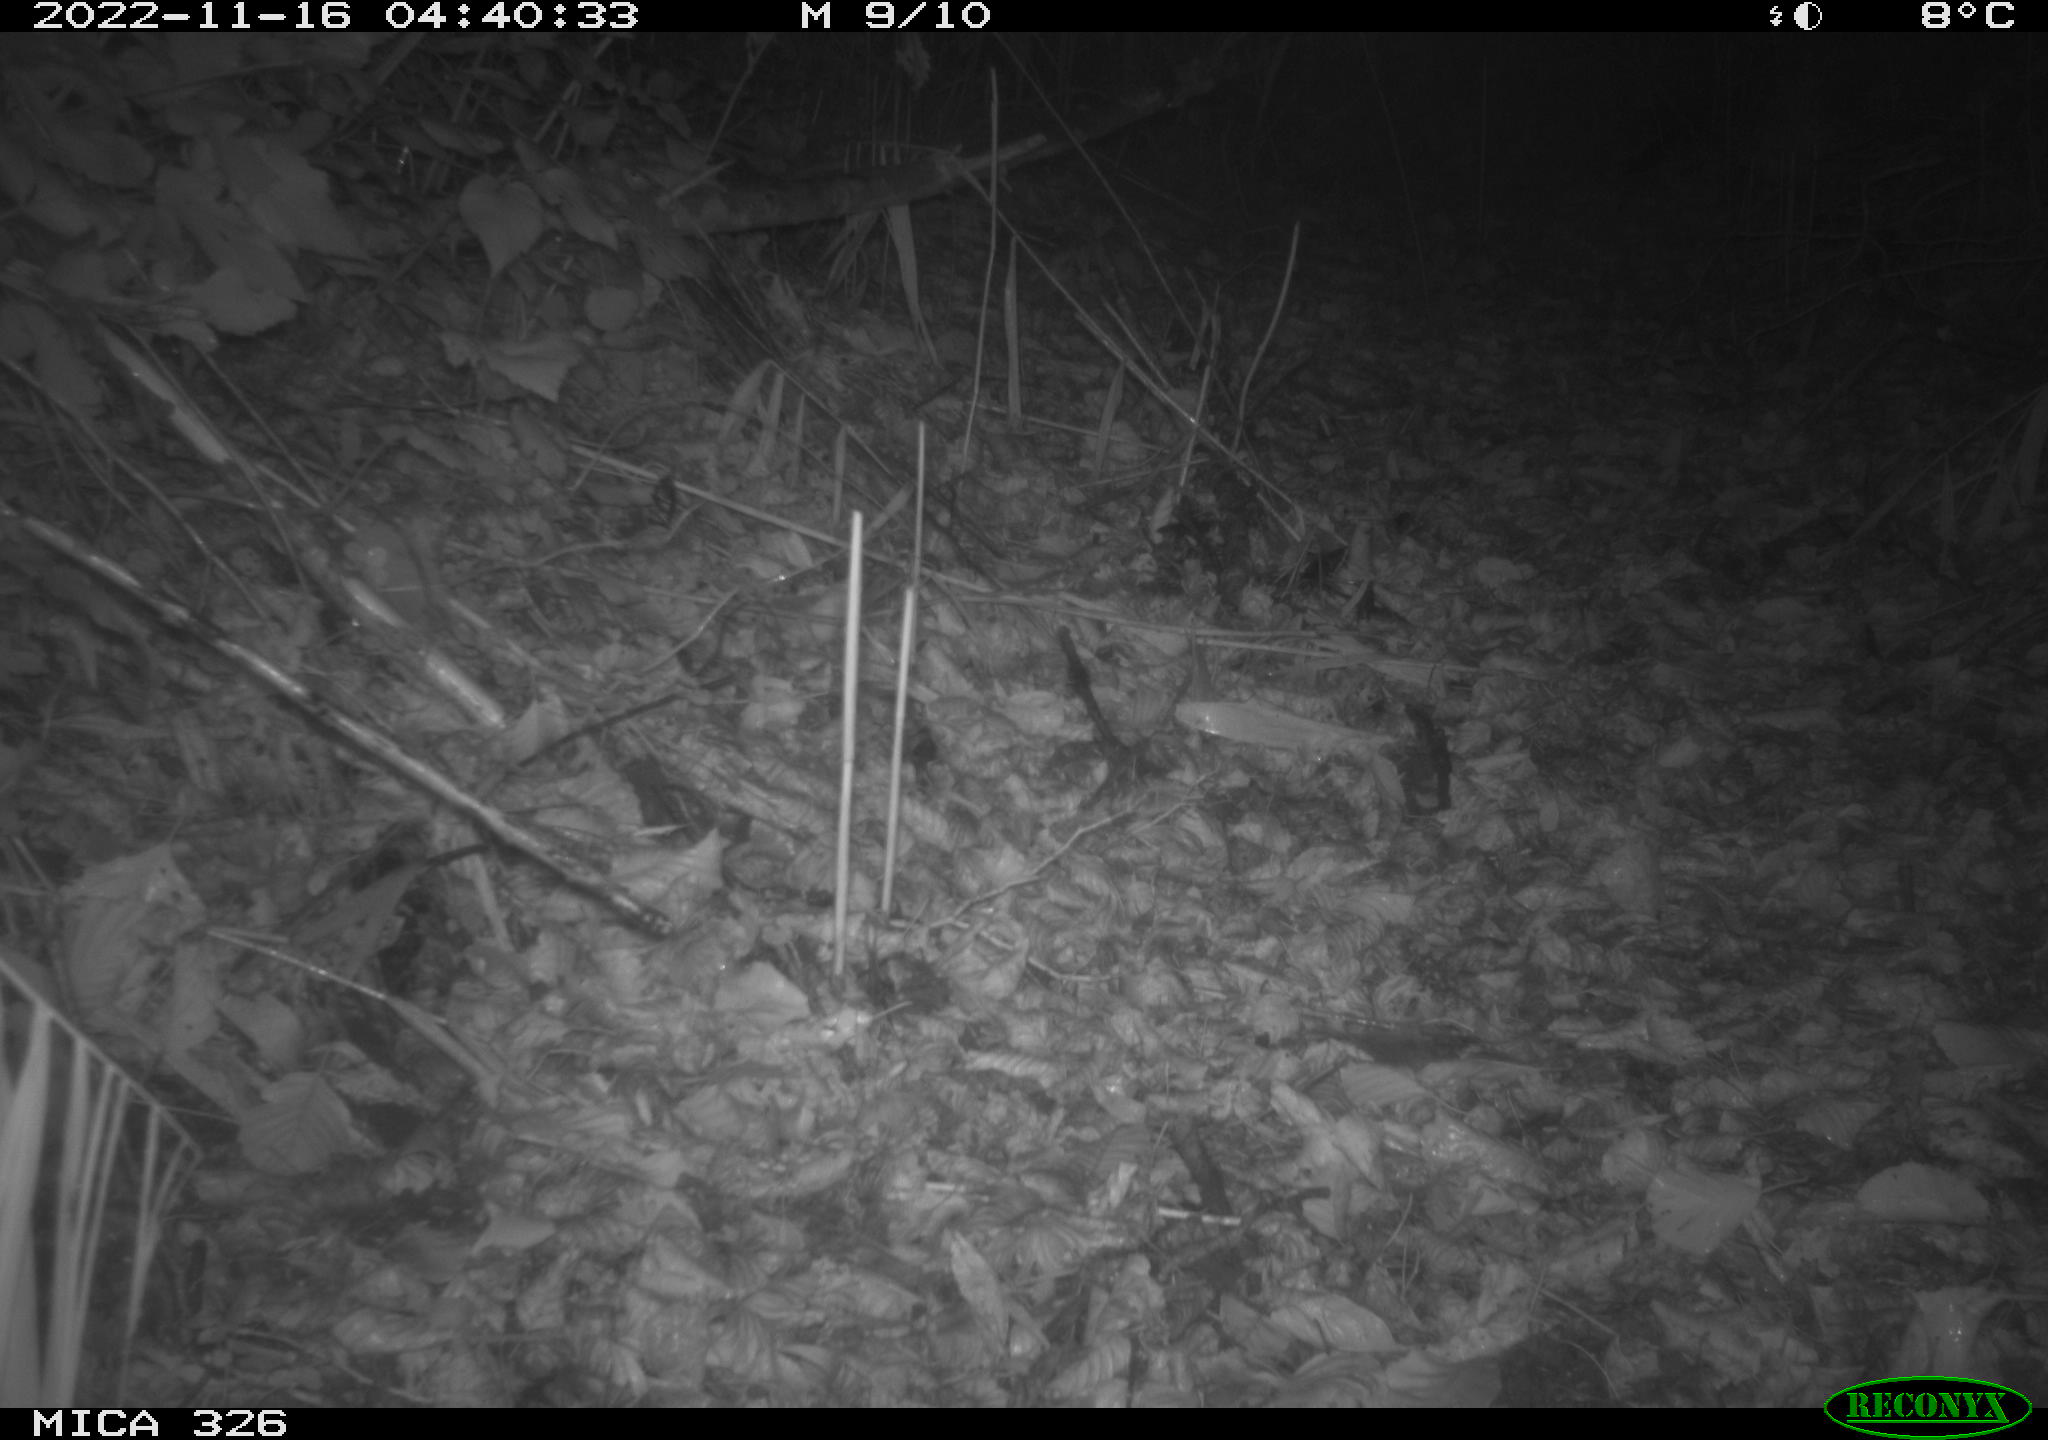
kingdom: Animalia
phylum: Chordata
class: Mammalia
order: Carnivora
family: Mustelidae
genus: Lutra
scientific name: Lutra lutra
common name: European otter
